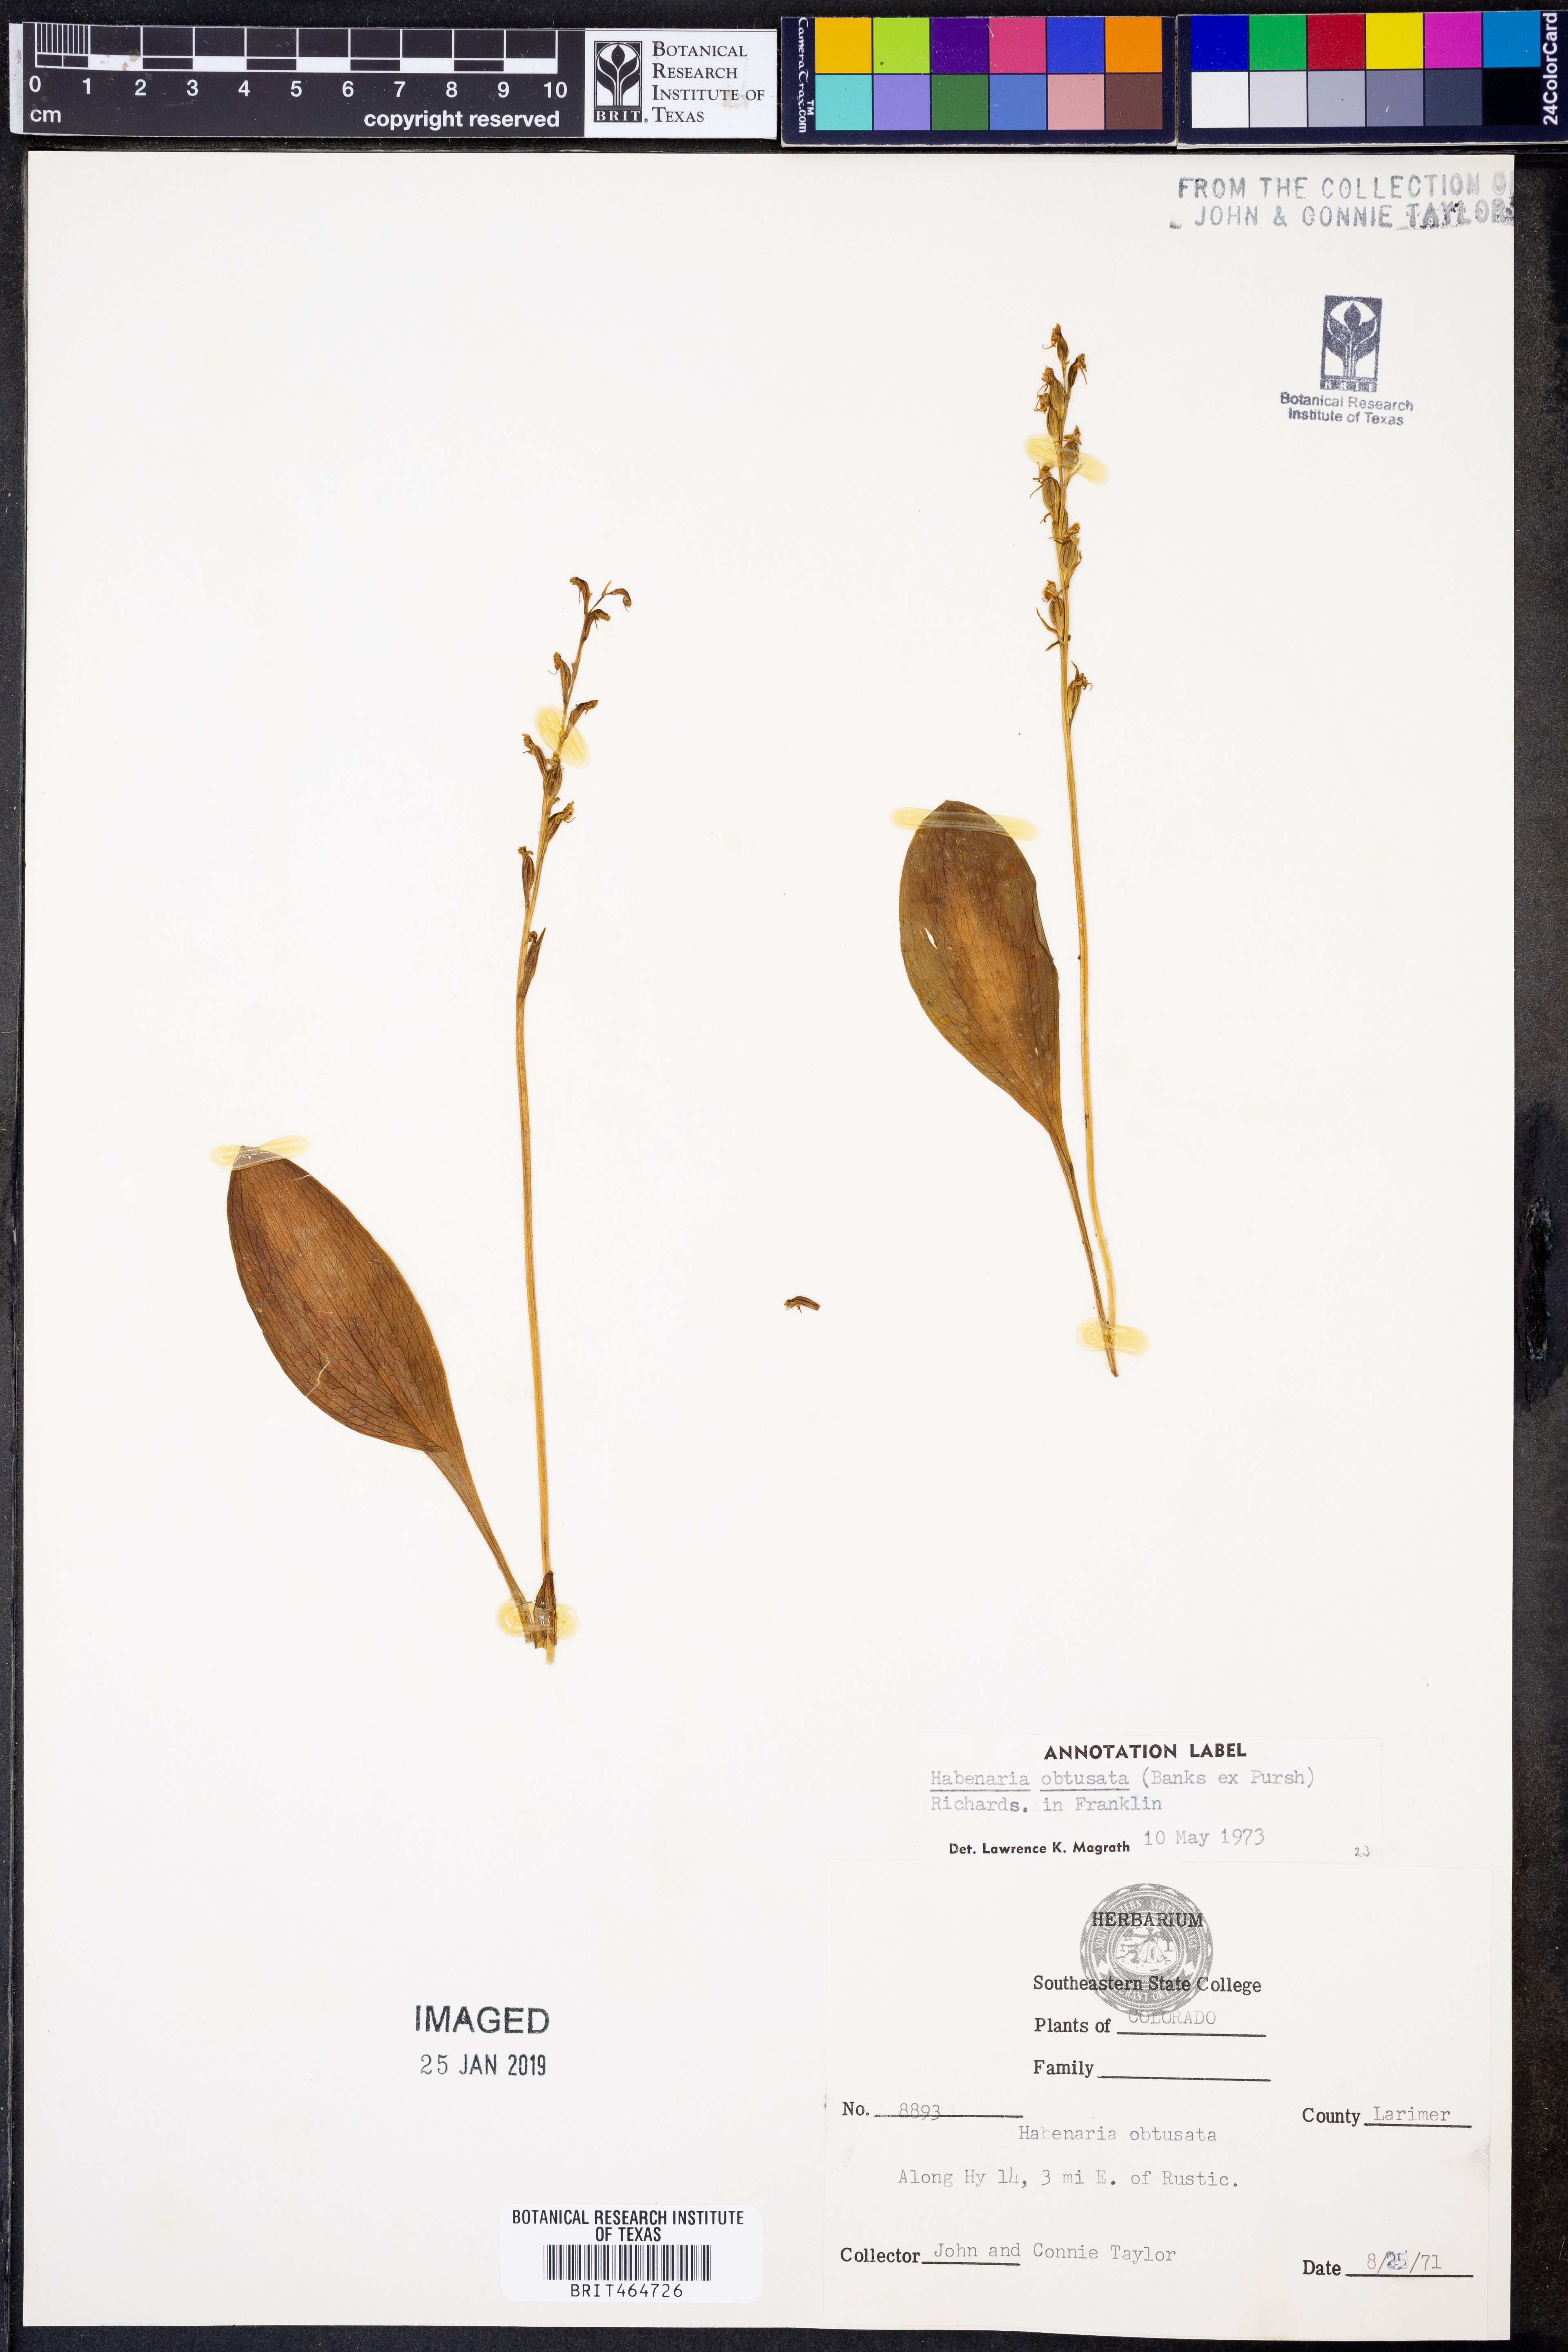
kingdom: Plantae
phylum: Tracheophyta
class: Liliopsida
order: Asparagales
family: Orchidaceae
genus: Platanthera
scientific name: Platanthera obtusata
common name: Blunt bog orchid
